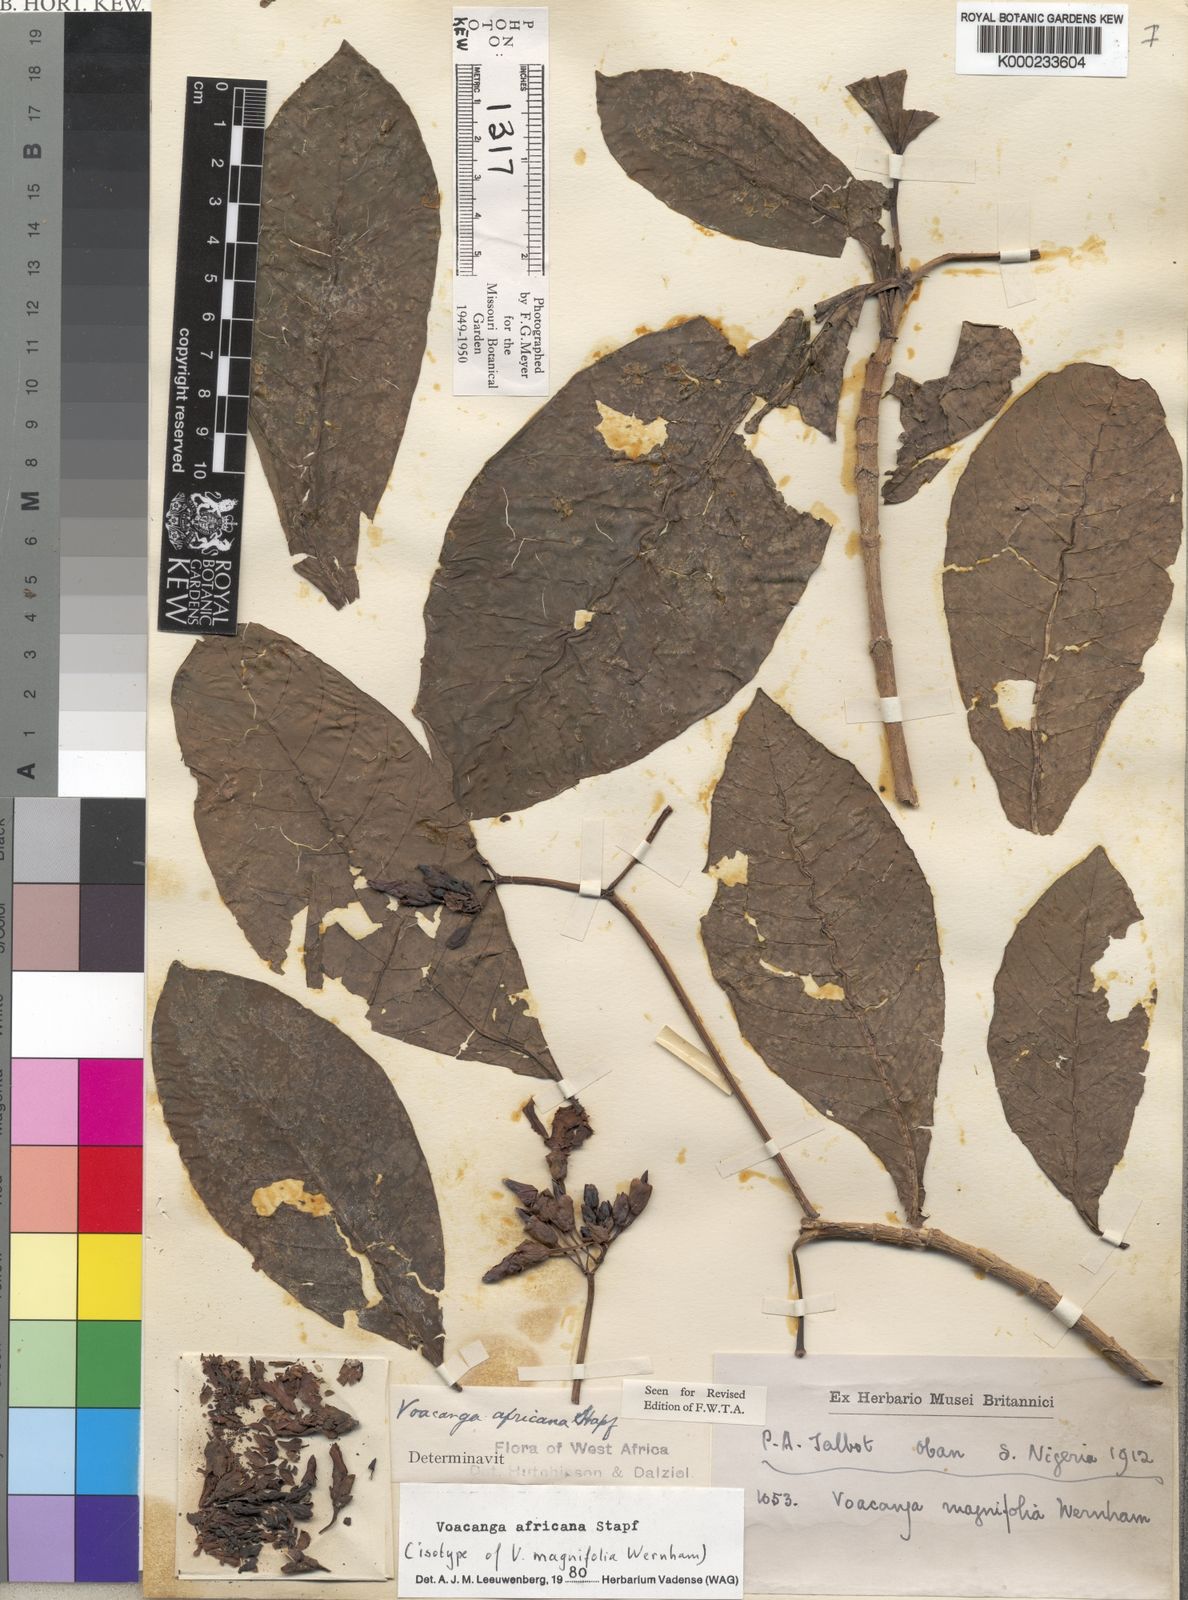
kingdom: Plantae
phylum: Tracheophyta
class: Magnoliopsida
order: Gentianales
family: Apocynaceae
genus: Voacanga
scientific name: Voacanga africana
